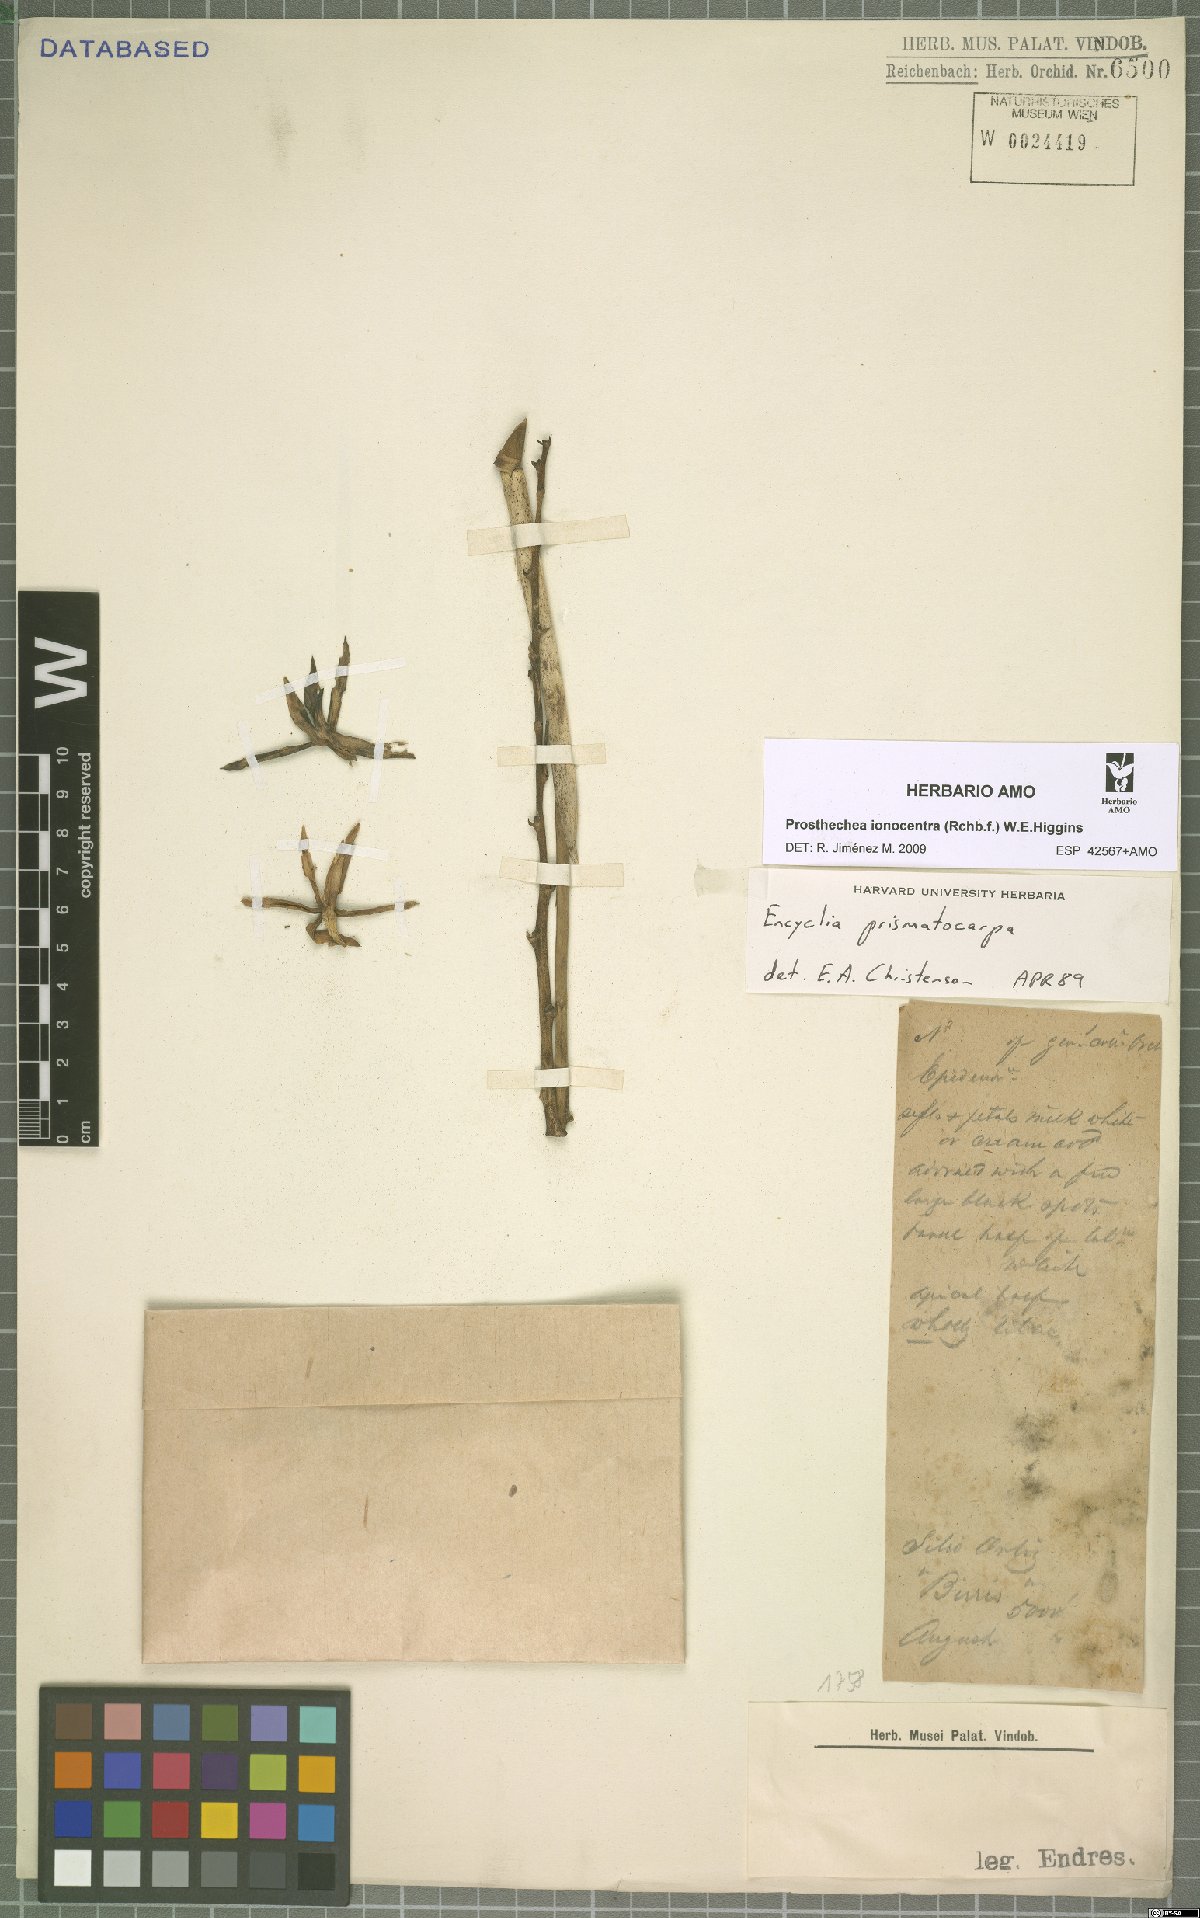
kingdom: Plantae
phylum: Tracheophyta
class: Liliopsida
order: Asparagales
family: Orchidaceae
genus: Prosthechea
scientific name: Prosthechea ionocentra
